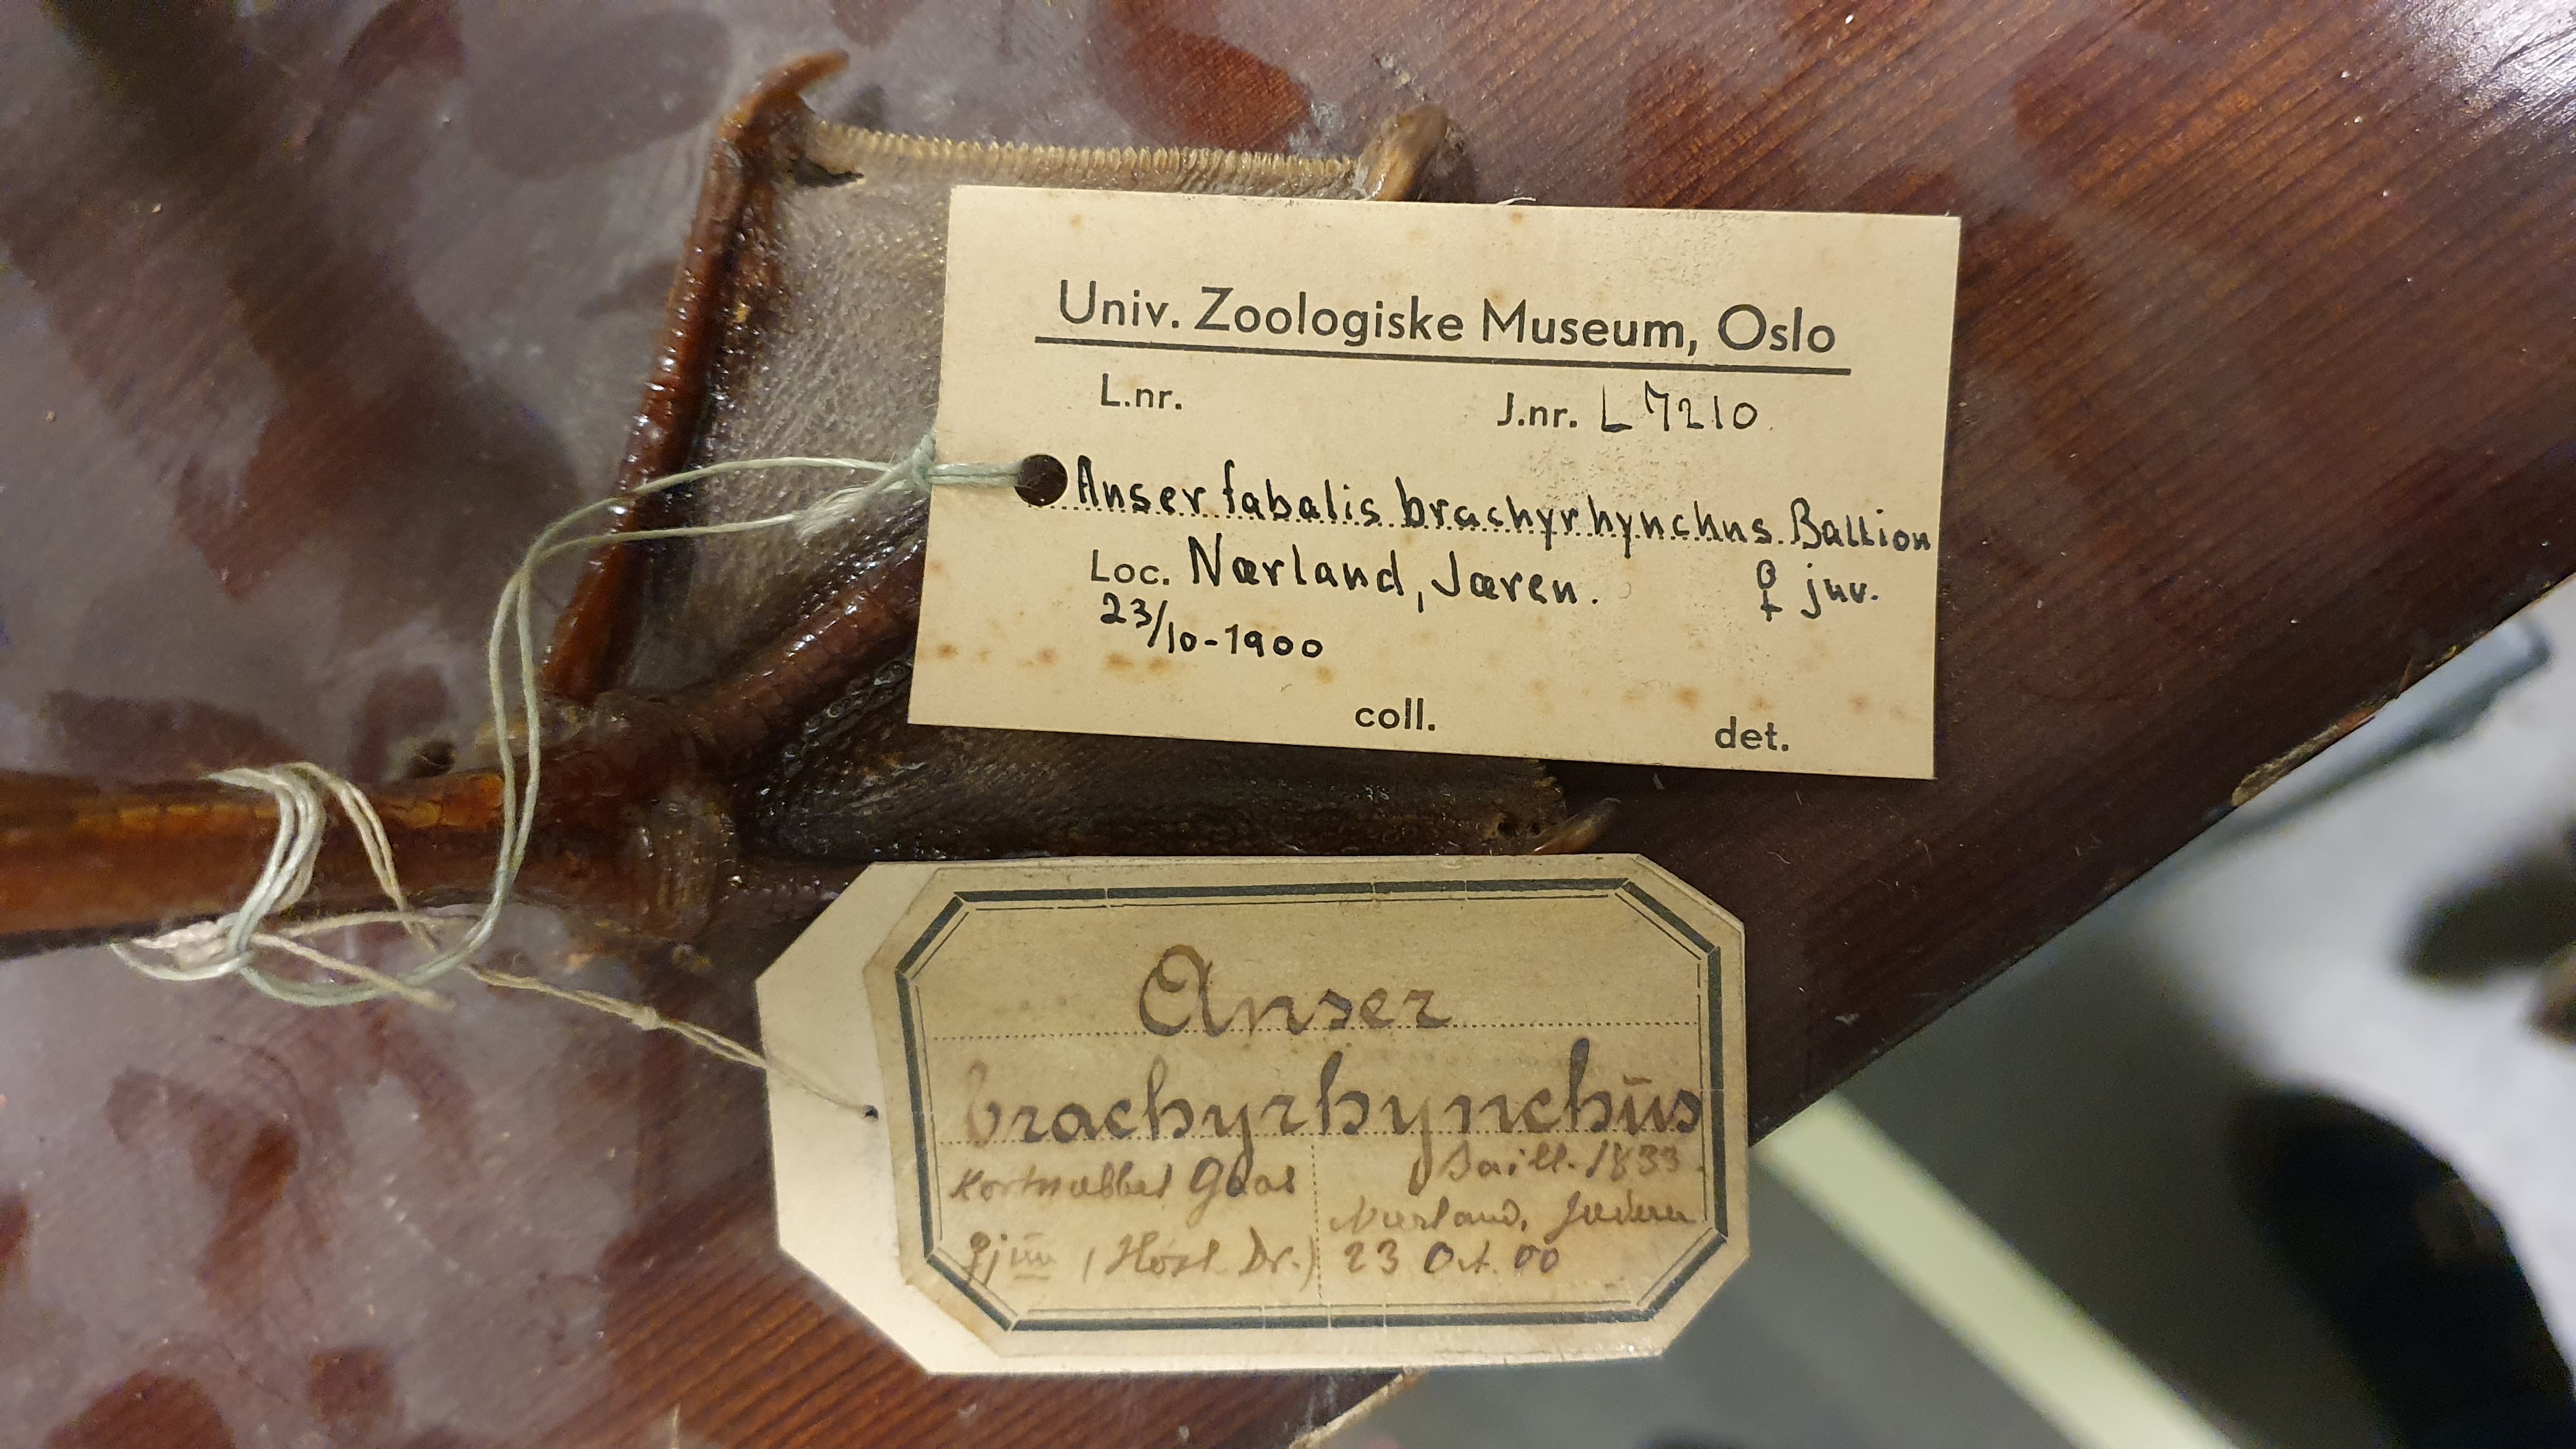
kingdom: Animalia
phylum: Chordata
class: Aves
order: Anseriformes
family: Anatidae
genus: Anser
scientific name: Anser brachyrhynchus
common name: Pink-footed goose
